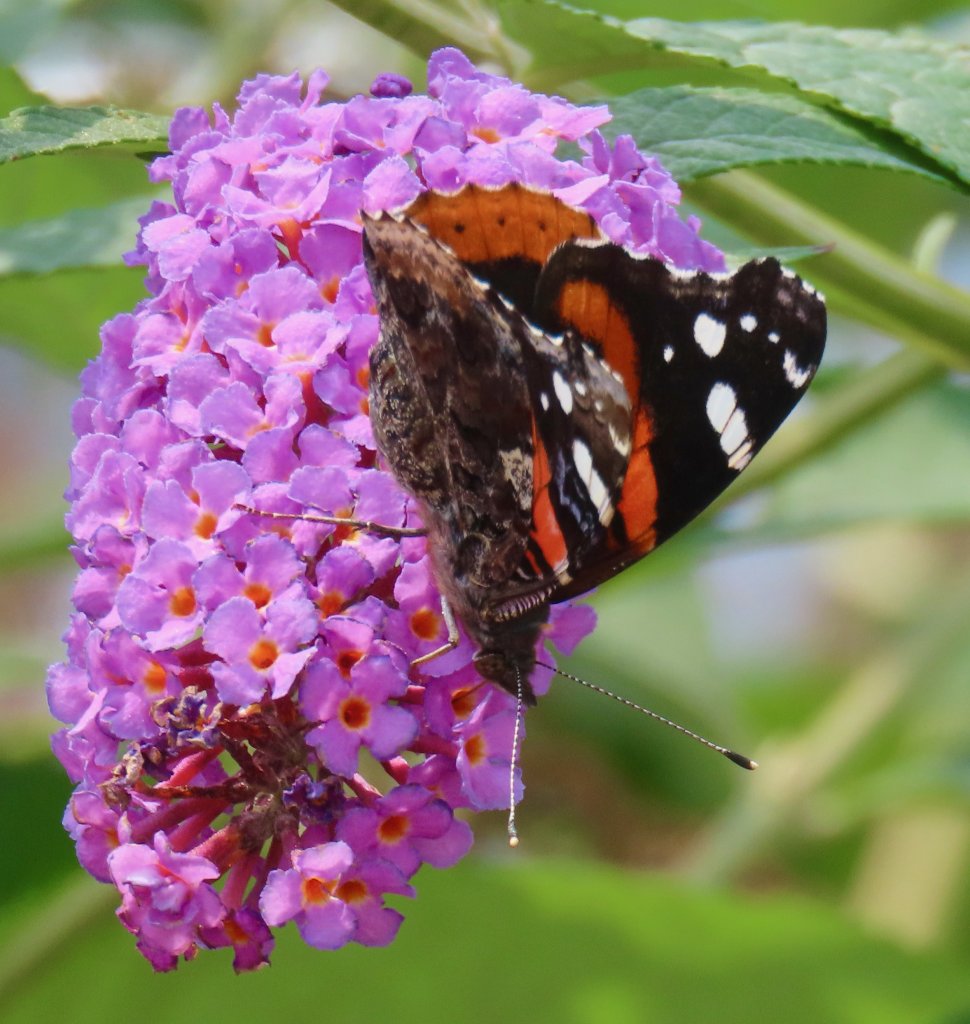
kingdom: Animalia
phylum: Arthropoda
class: Insecta
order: Lepidoptera
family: Nymphalidae
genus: Vanessa
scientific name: Vanessa atalanta
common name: Red Admiral
